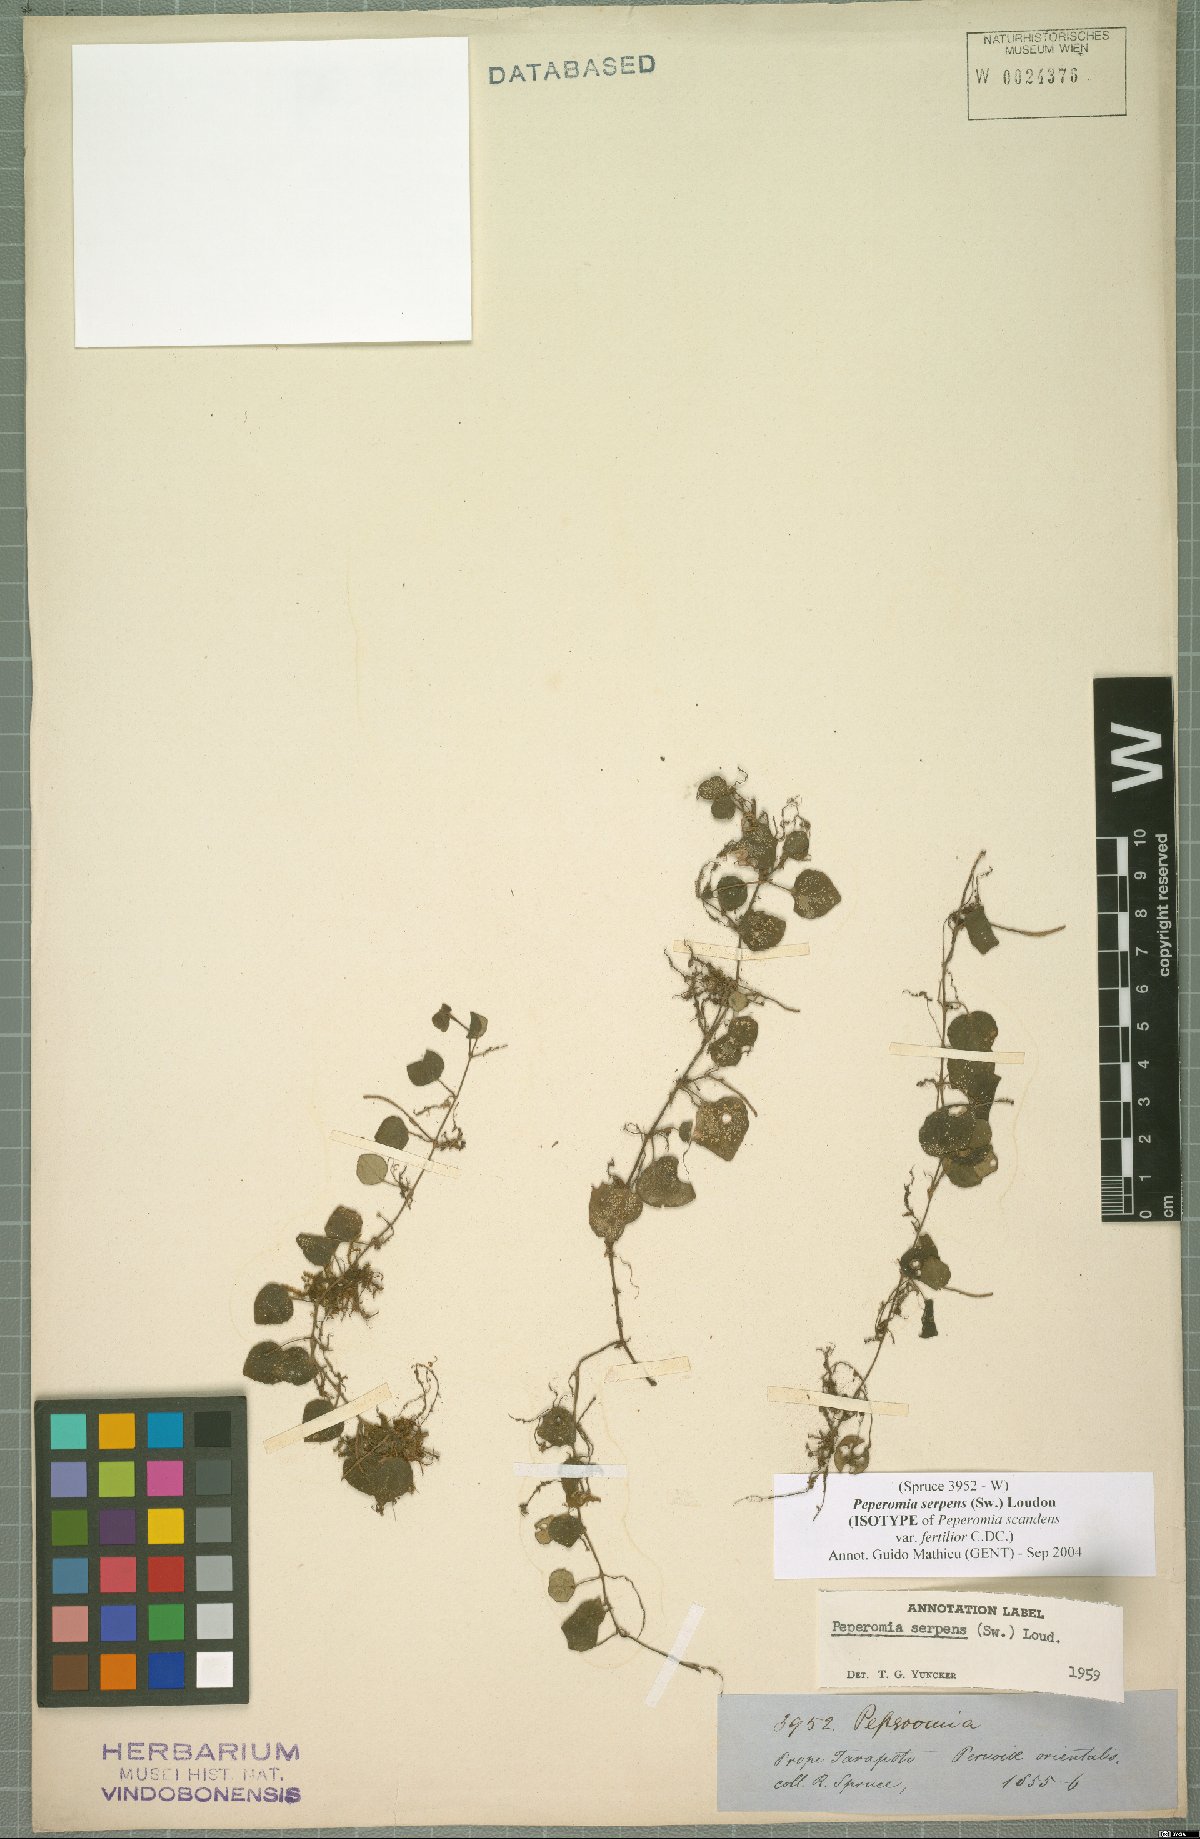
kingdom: Plantae
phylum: Tracheophyta
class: Magnoliopsida
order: Piperales
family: Piperaceae
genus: Peperomia
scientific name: Peperomia serpens
